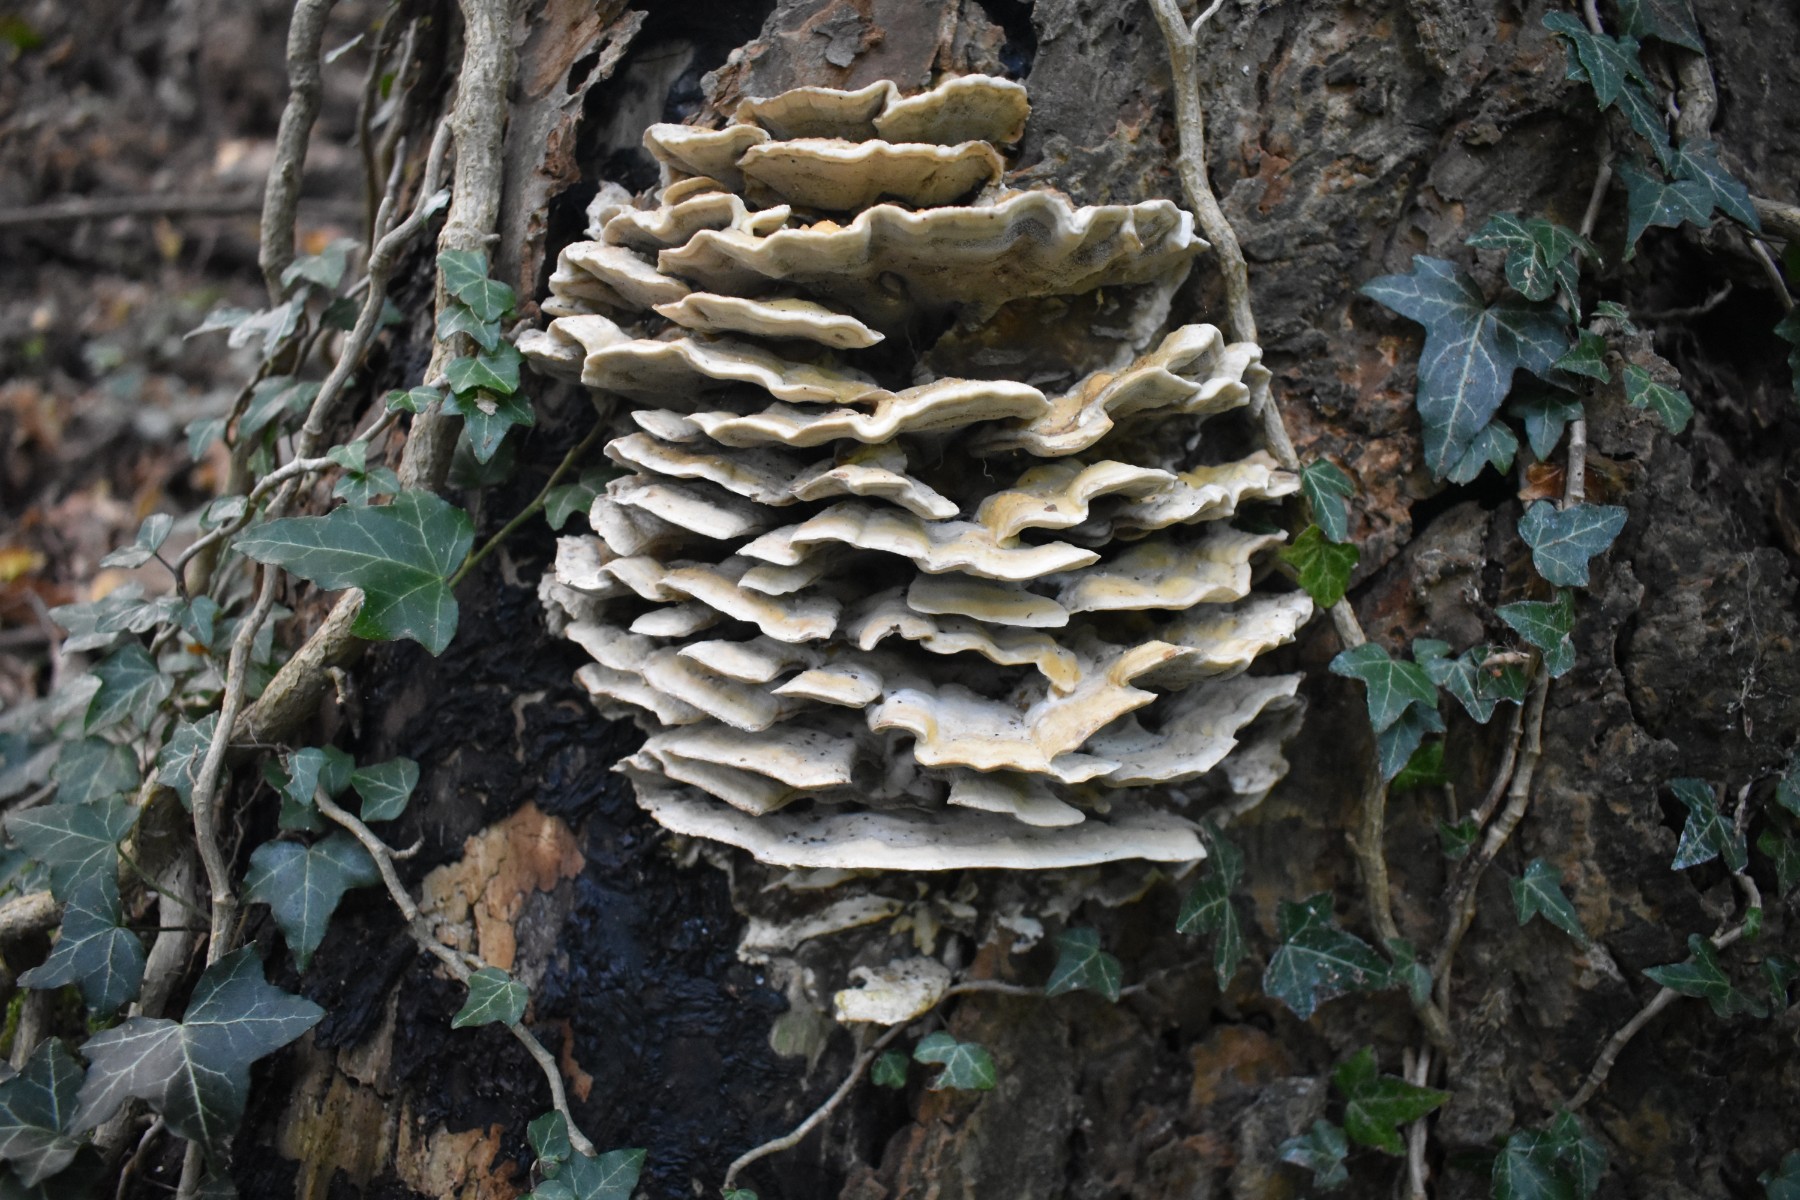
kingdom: Fungi
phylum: Basidiomycota
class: Agaricomycetes
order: Polyporales
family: Phanerochaetaceae
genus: Bjerkandera
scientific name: Bjerkandera fumosa
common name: grågul sodporesvamp
